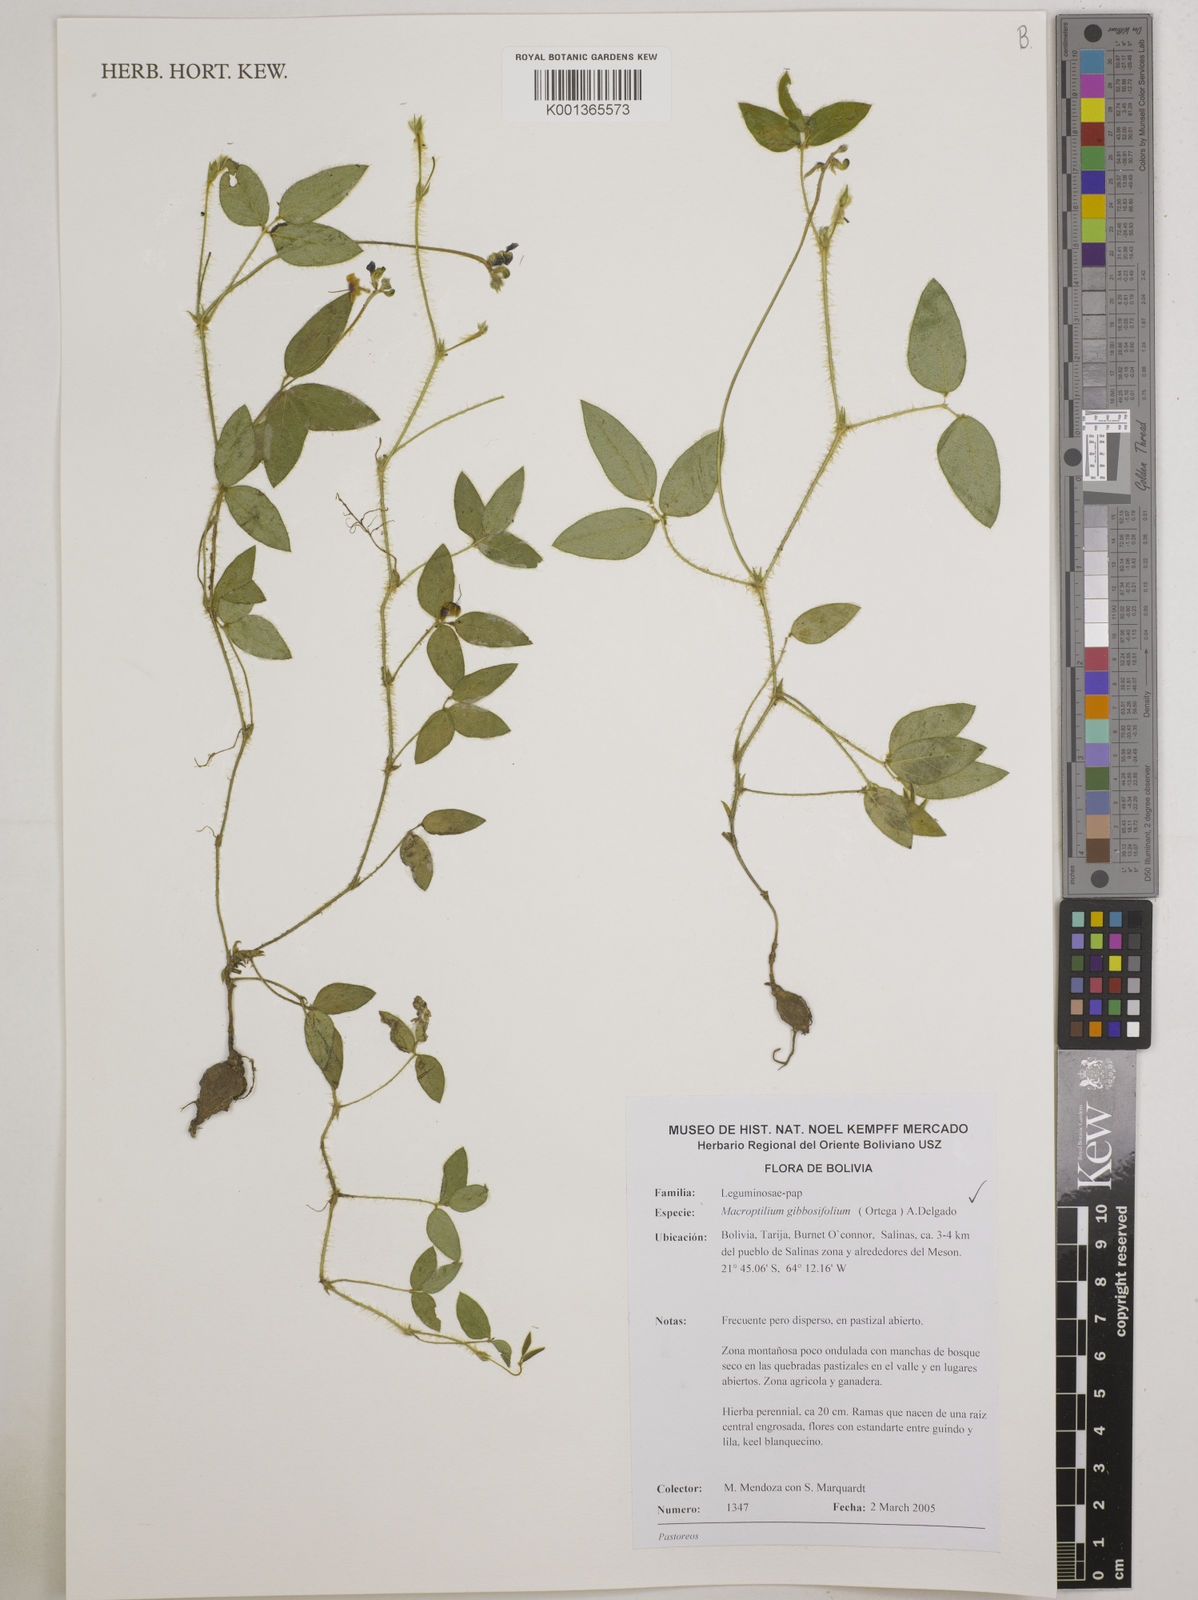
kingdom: Plantae
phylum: Tracheophyta
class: Magnoliopsida
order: Fabales
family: Fabaceae
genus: Macroptilium
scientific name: Macroptilium gibbosifolium
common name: Variableleaf bushbean
